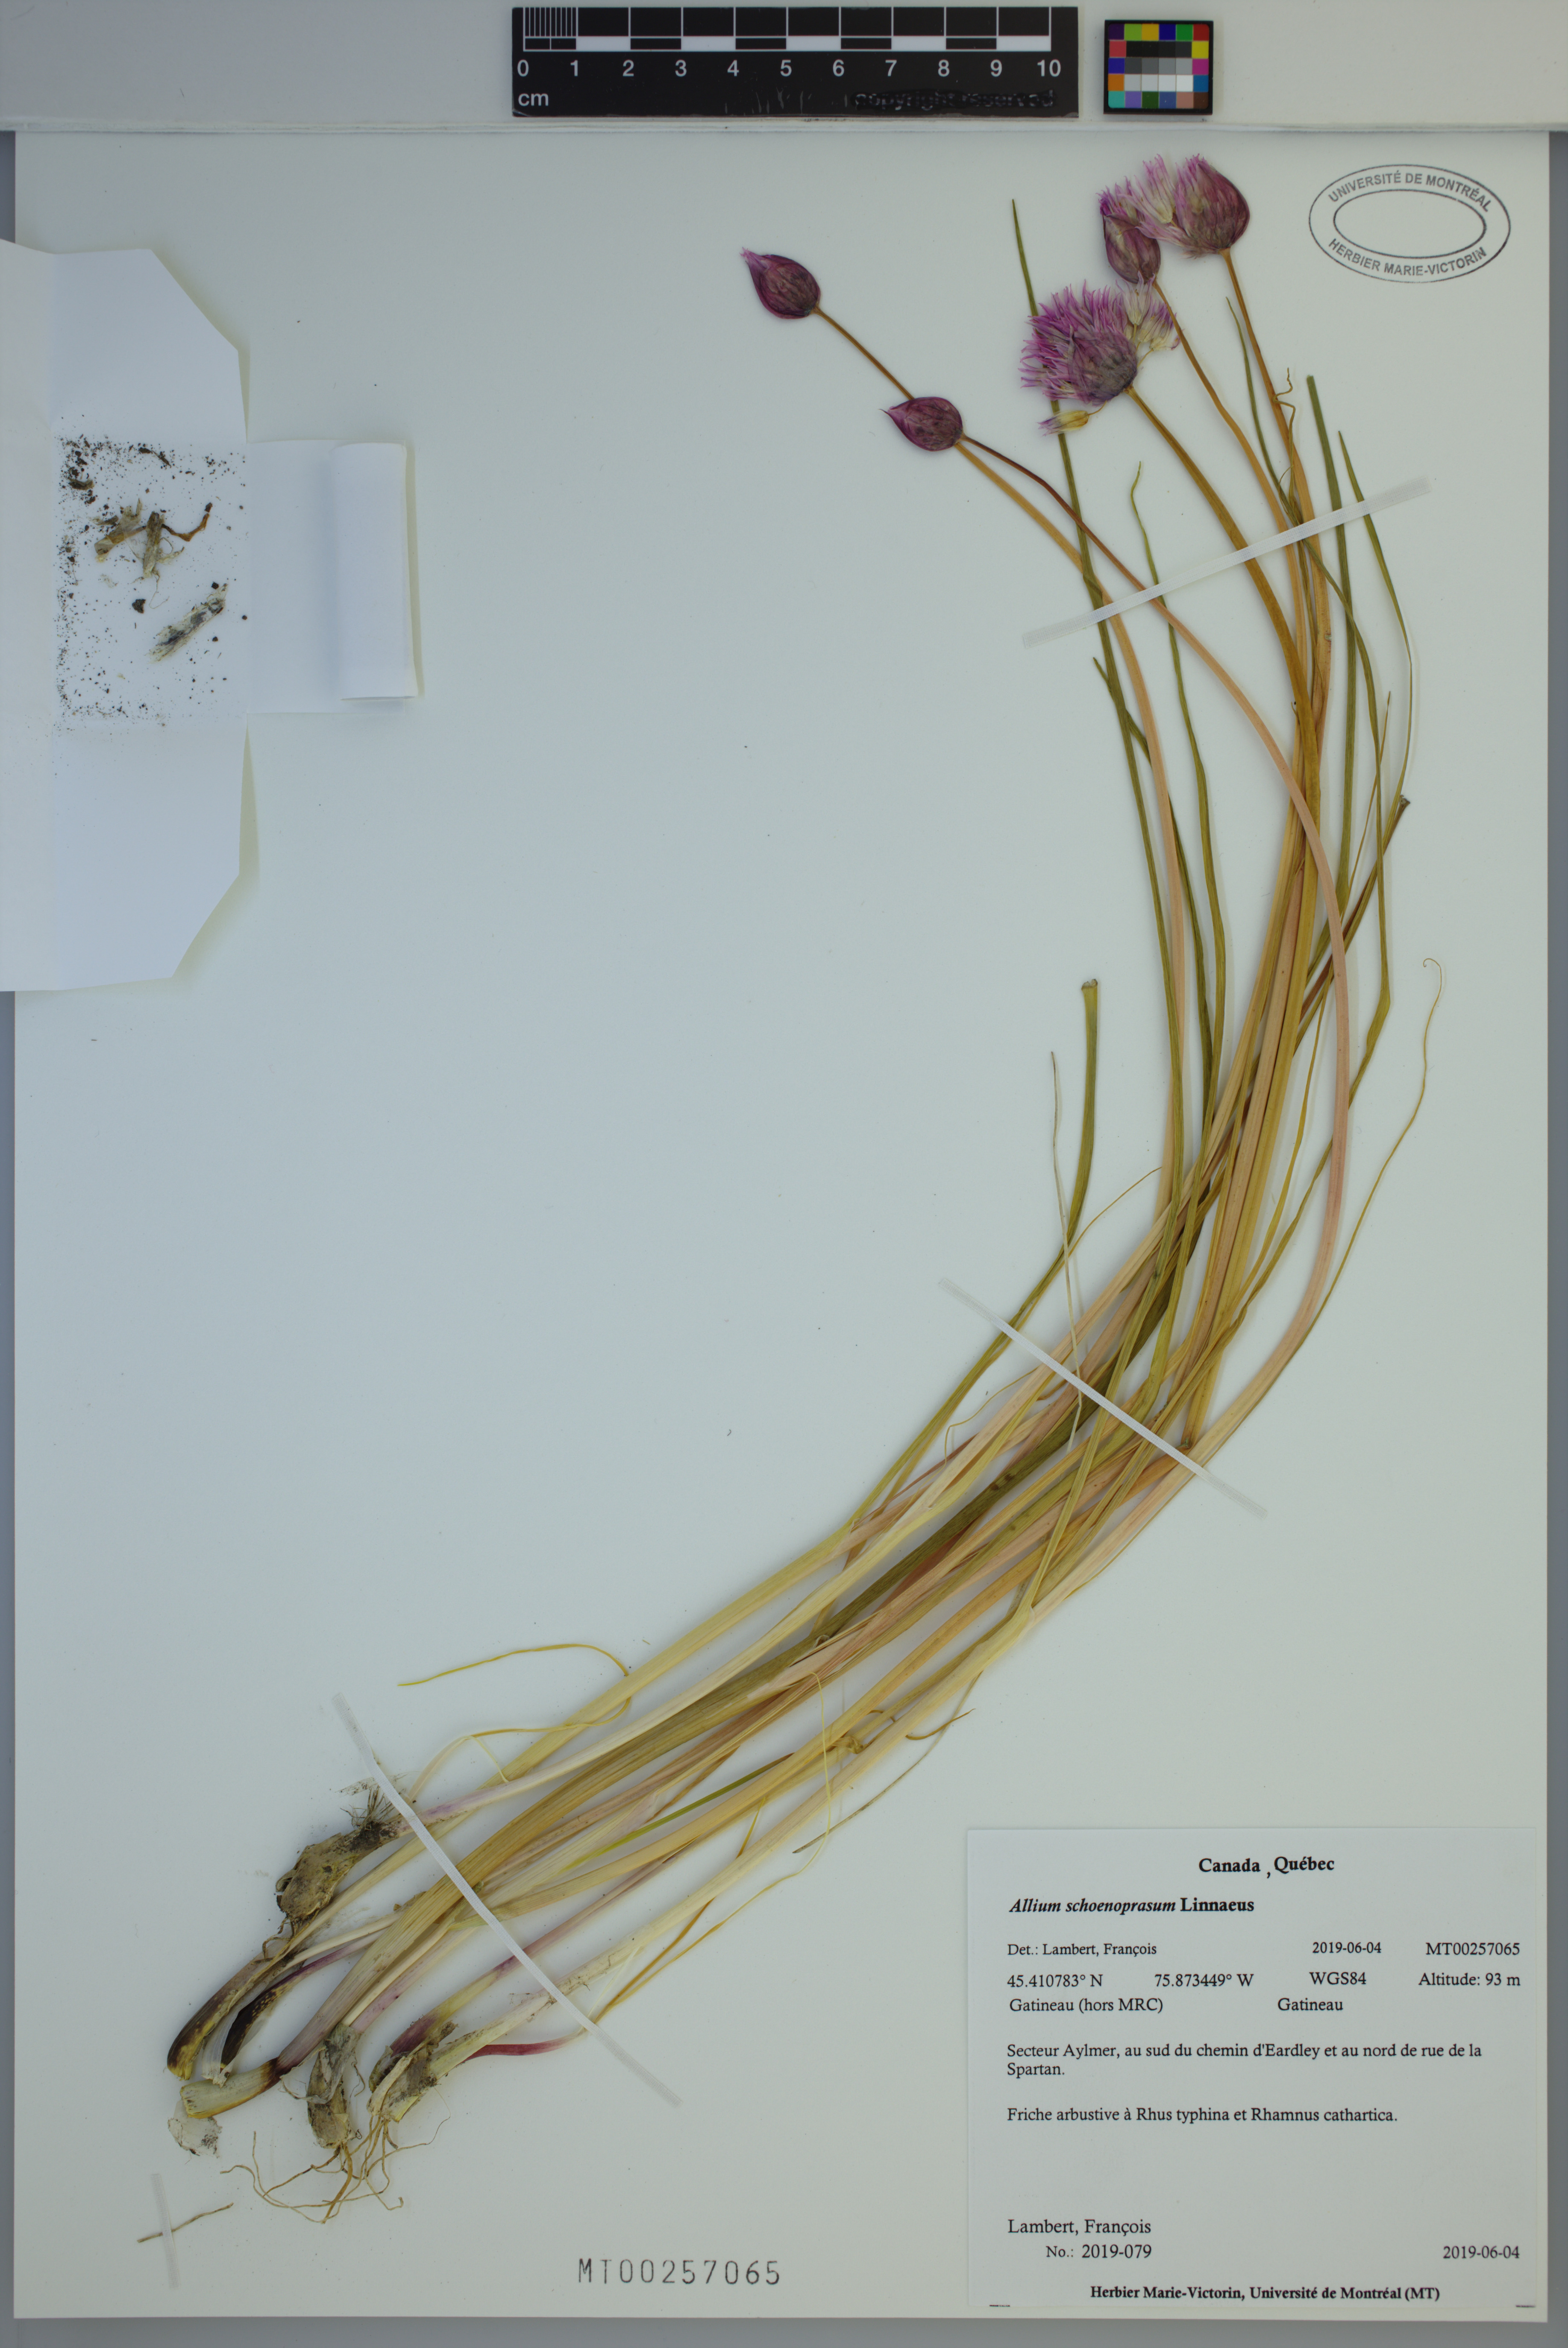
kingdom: Plantae
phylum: Tracheophyta
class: Liliopsida
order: Asparagales
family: Amaryllidaceae
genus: Allium
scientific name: Allium schoenoprasum
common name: Chives
